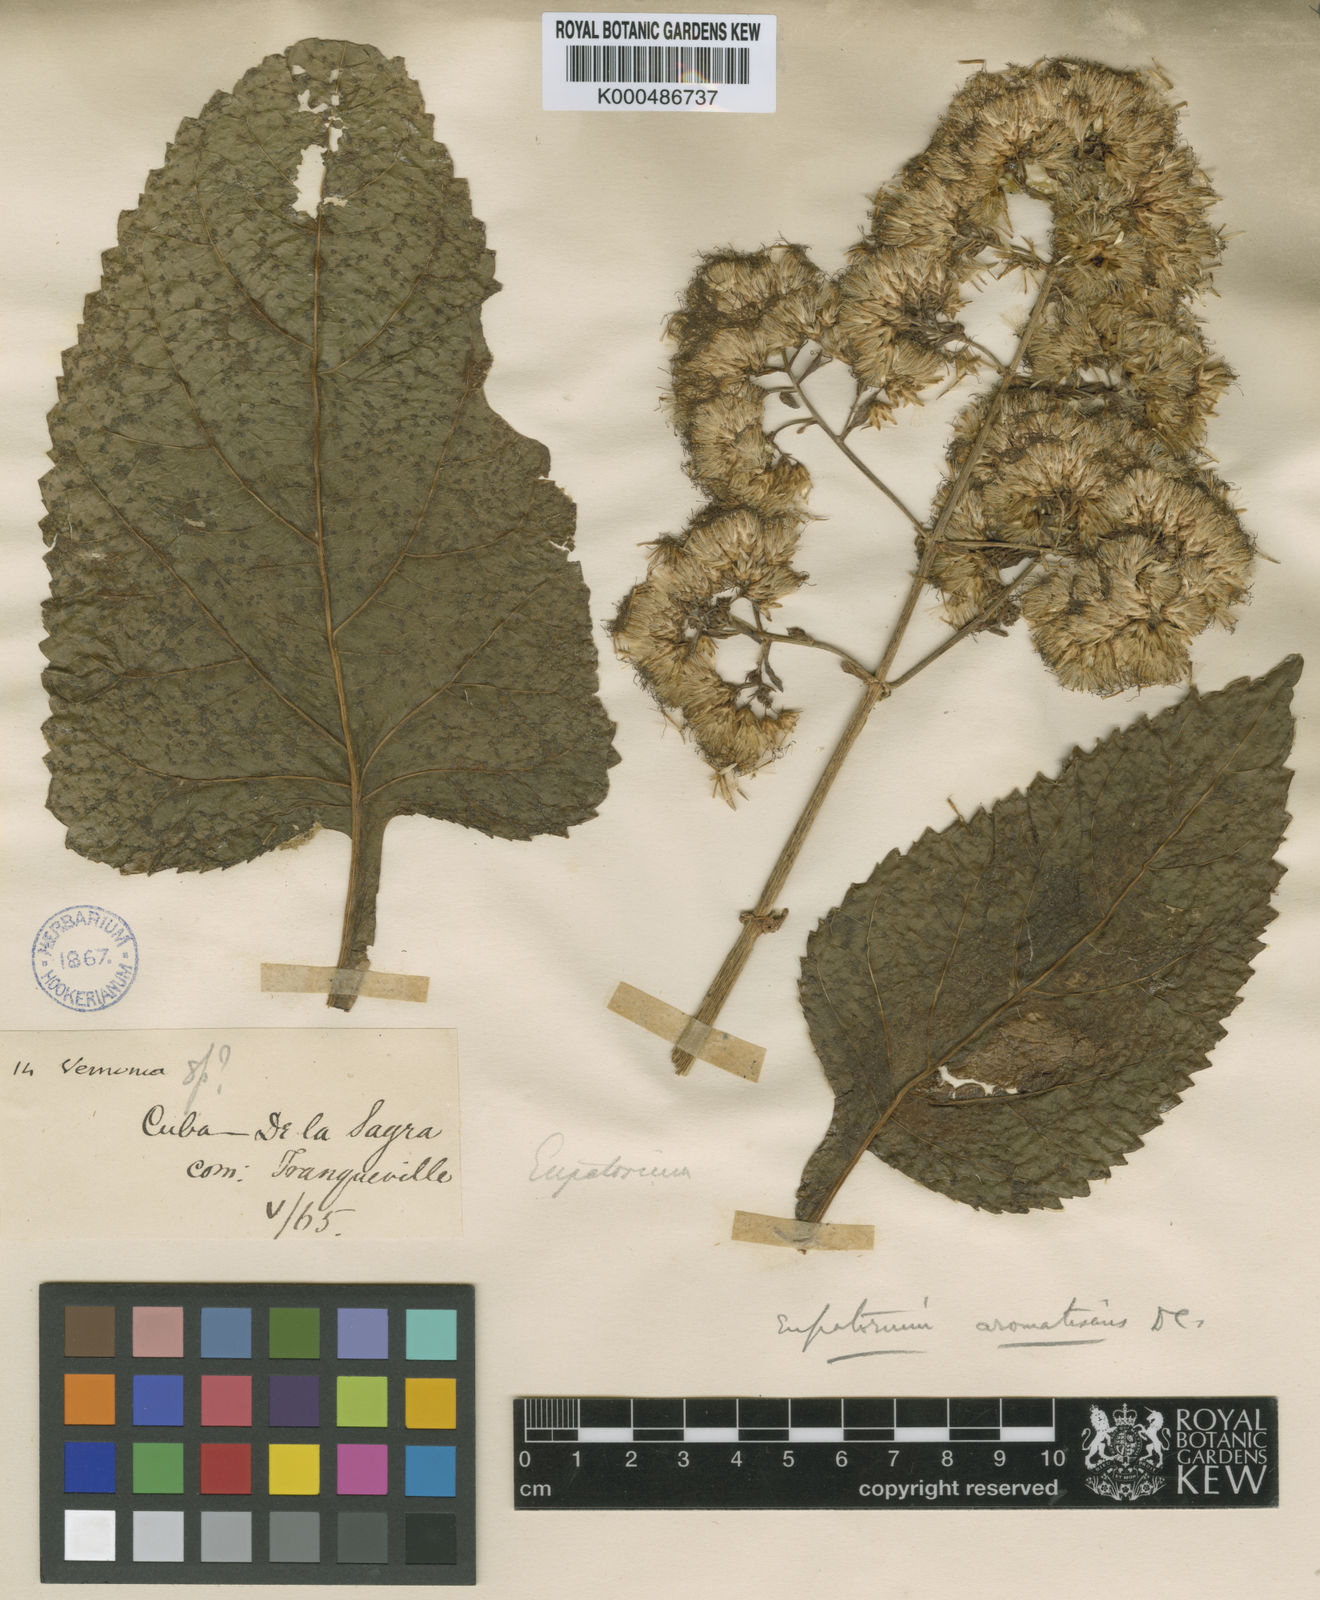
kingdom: Plantae
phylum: Tracheophyta
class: Magnoliopsida
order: Asterales
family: Asteraceae
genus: Critonia
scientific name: Critonia aromatisans
